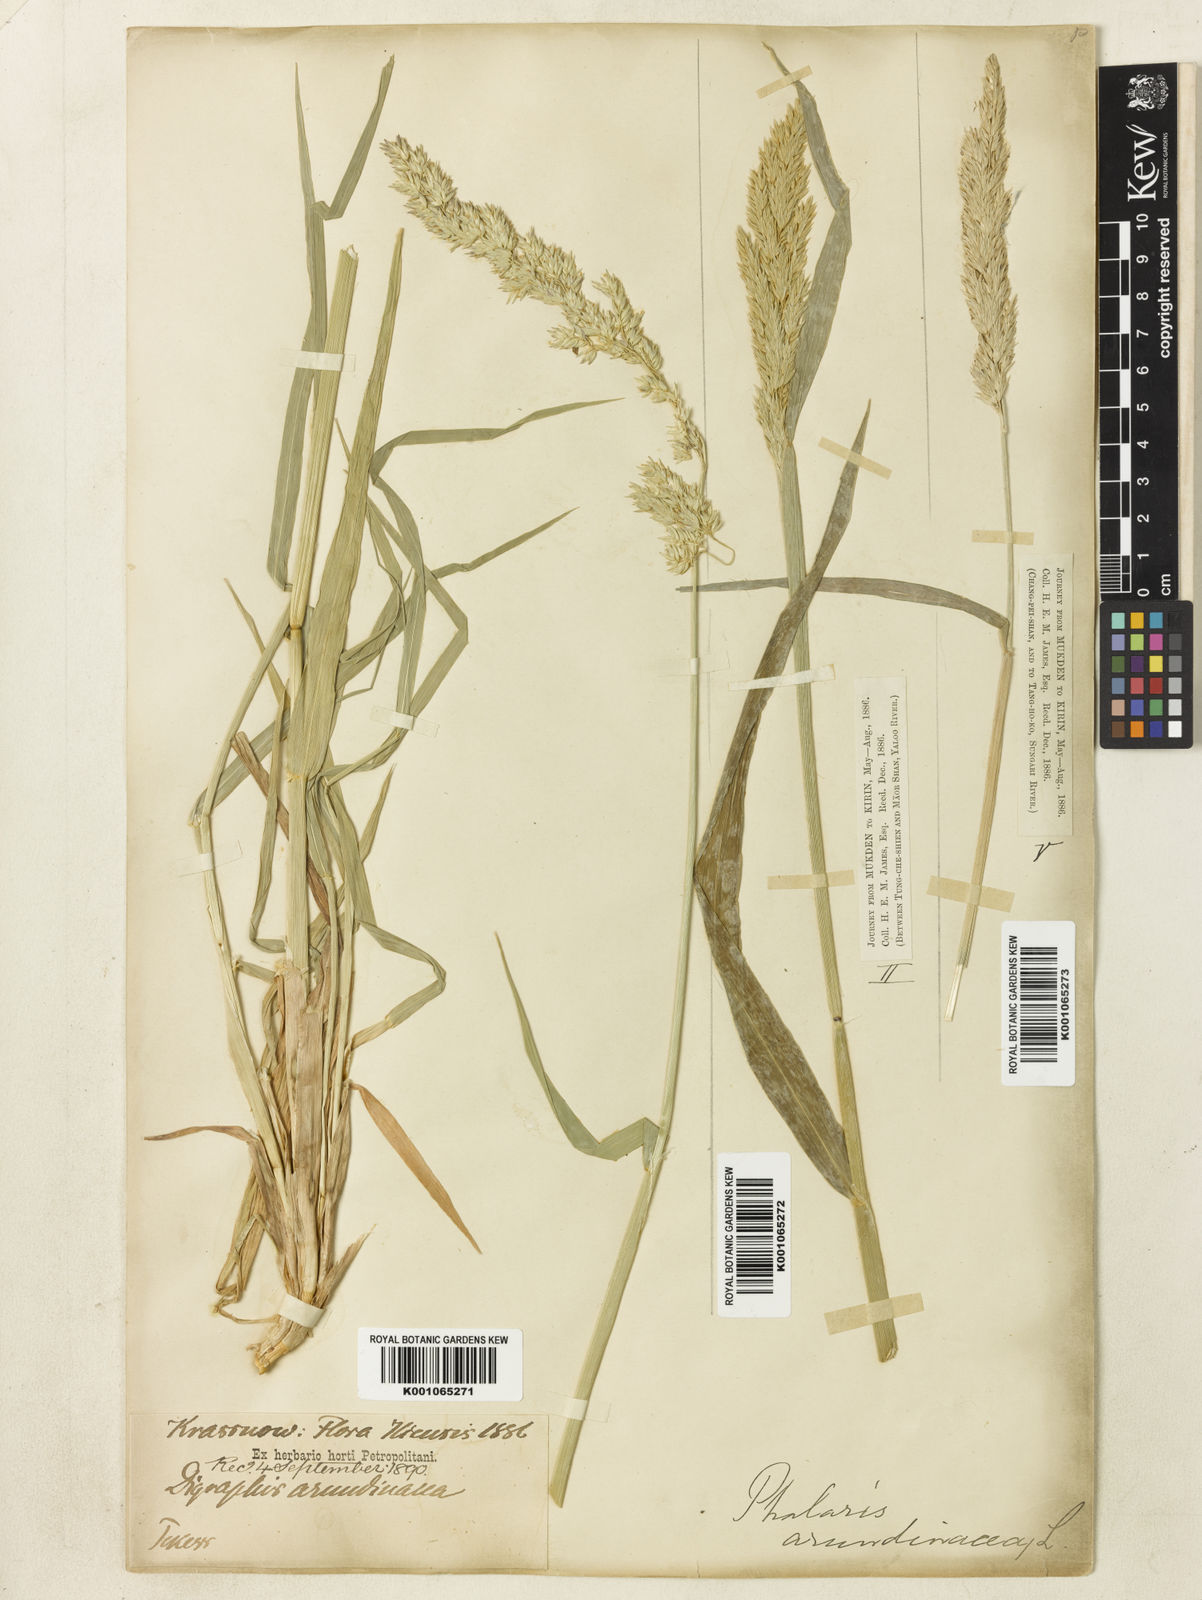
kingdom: Plantae
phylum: Tracheophyta
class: Liliopsida
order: Poales
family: Poaceae
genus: Phalaris
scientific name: Phalaris arundinacea
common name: Reed canary-grass
